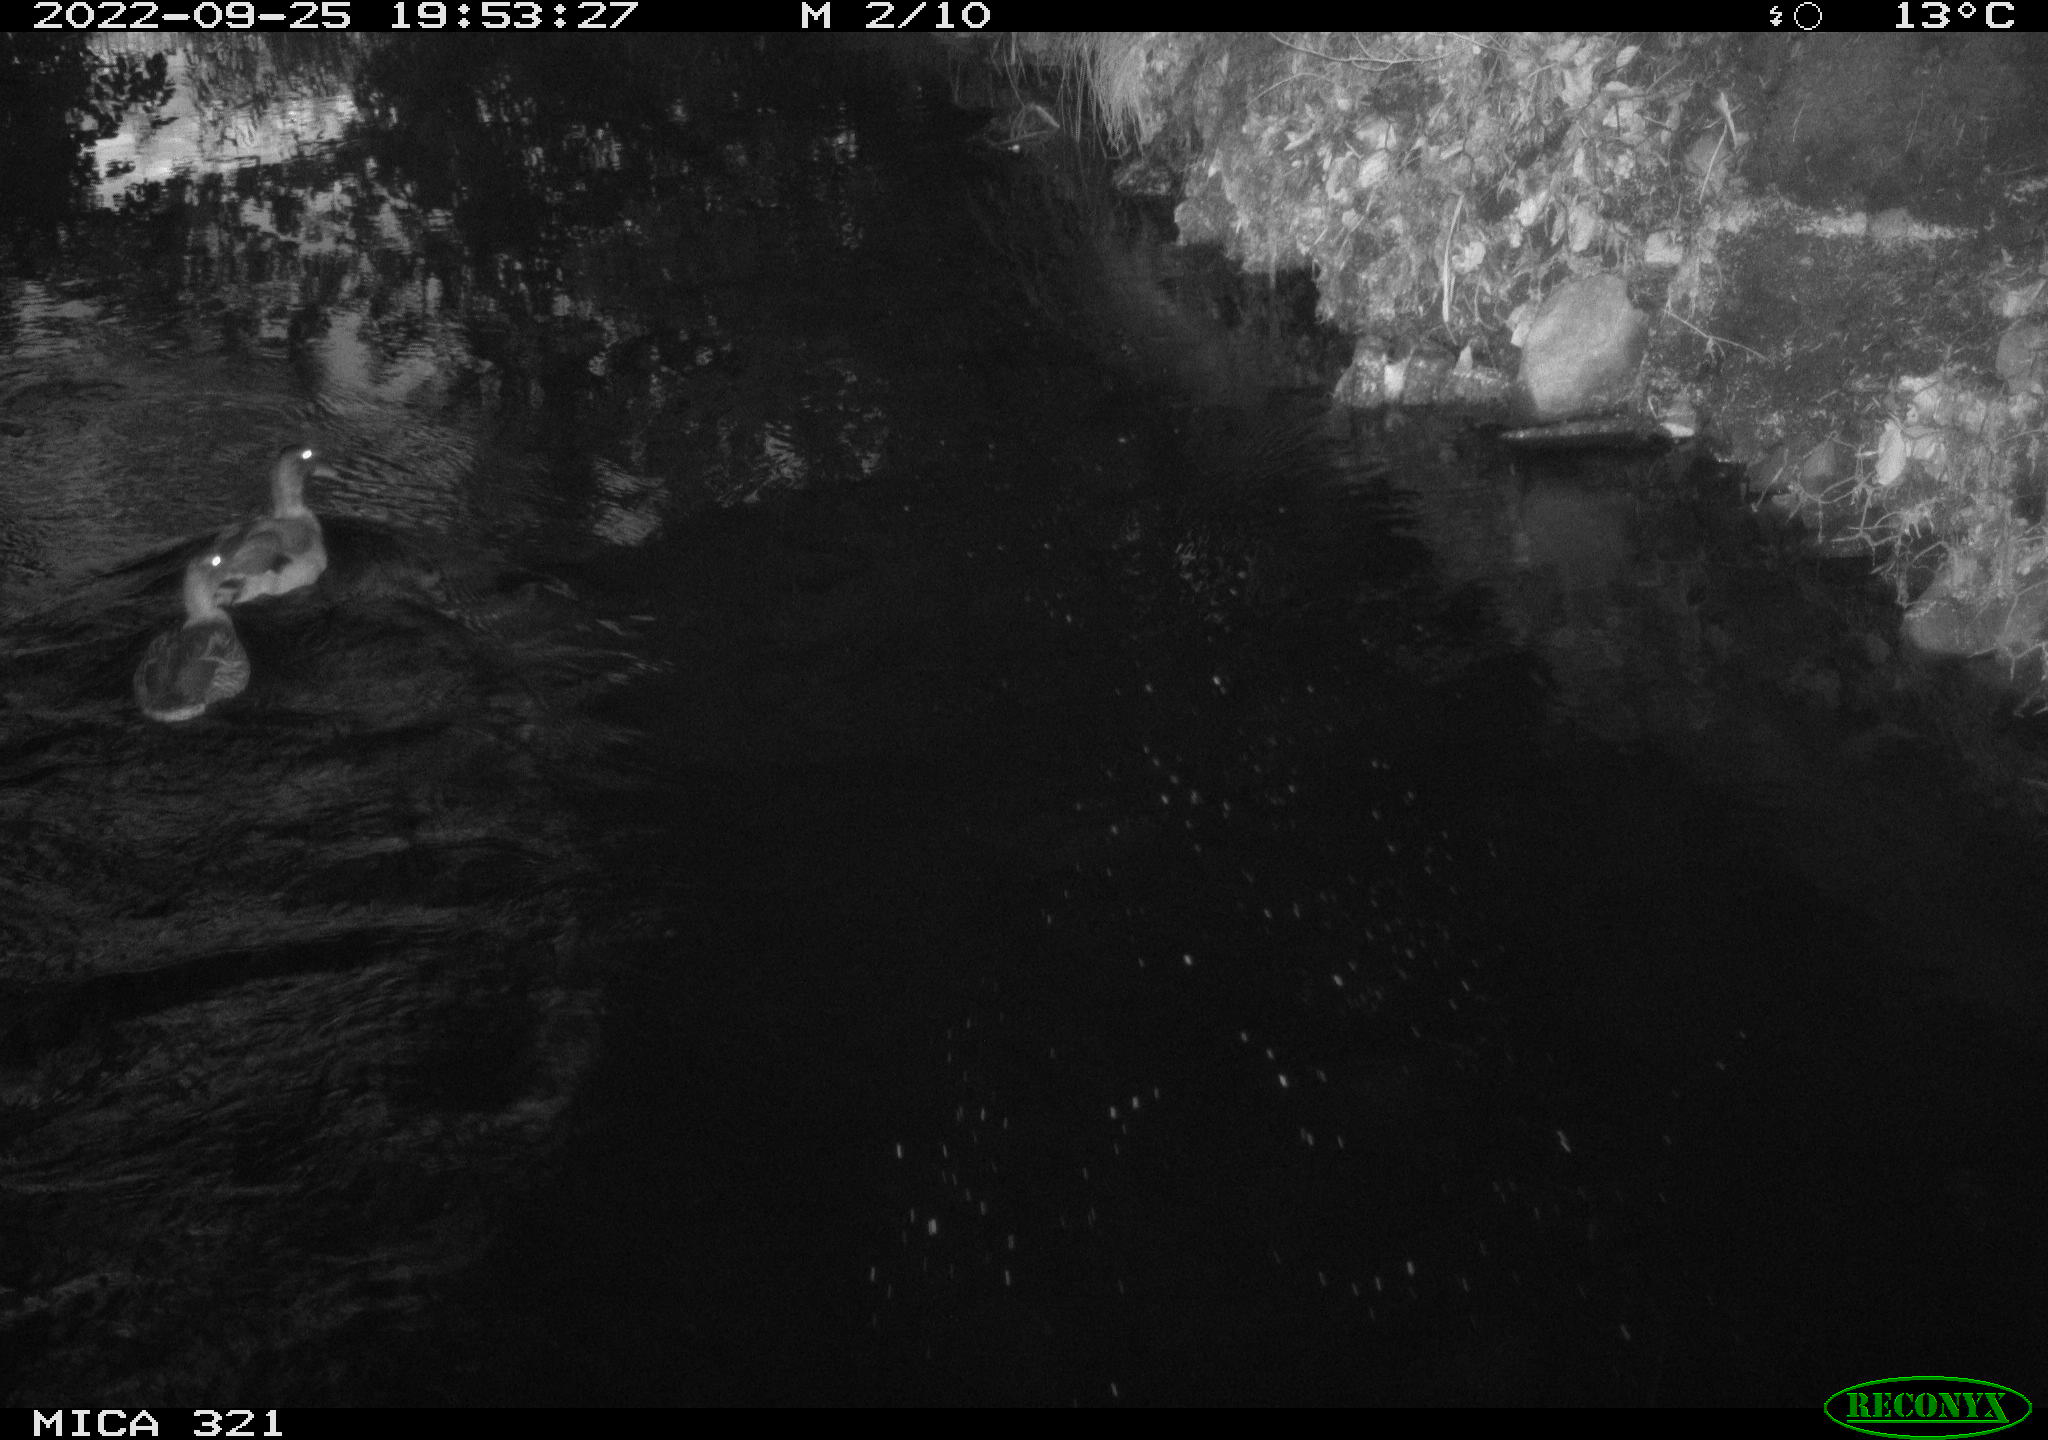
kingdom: Animalia
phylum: Chordata
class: Aves
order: Anseriformes
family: Anatidae
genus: Anas
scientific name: Anas
